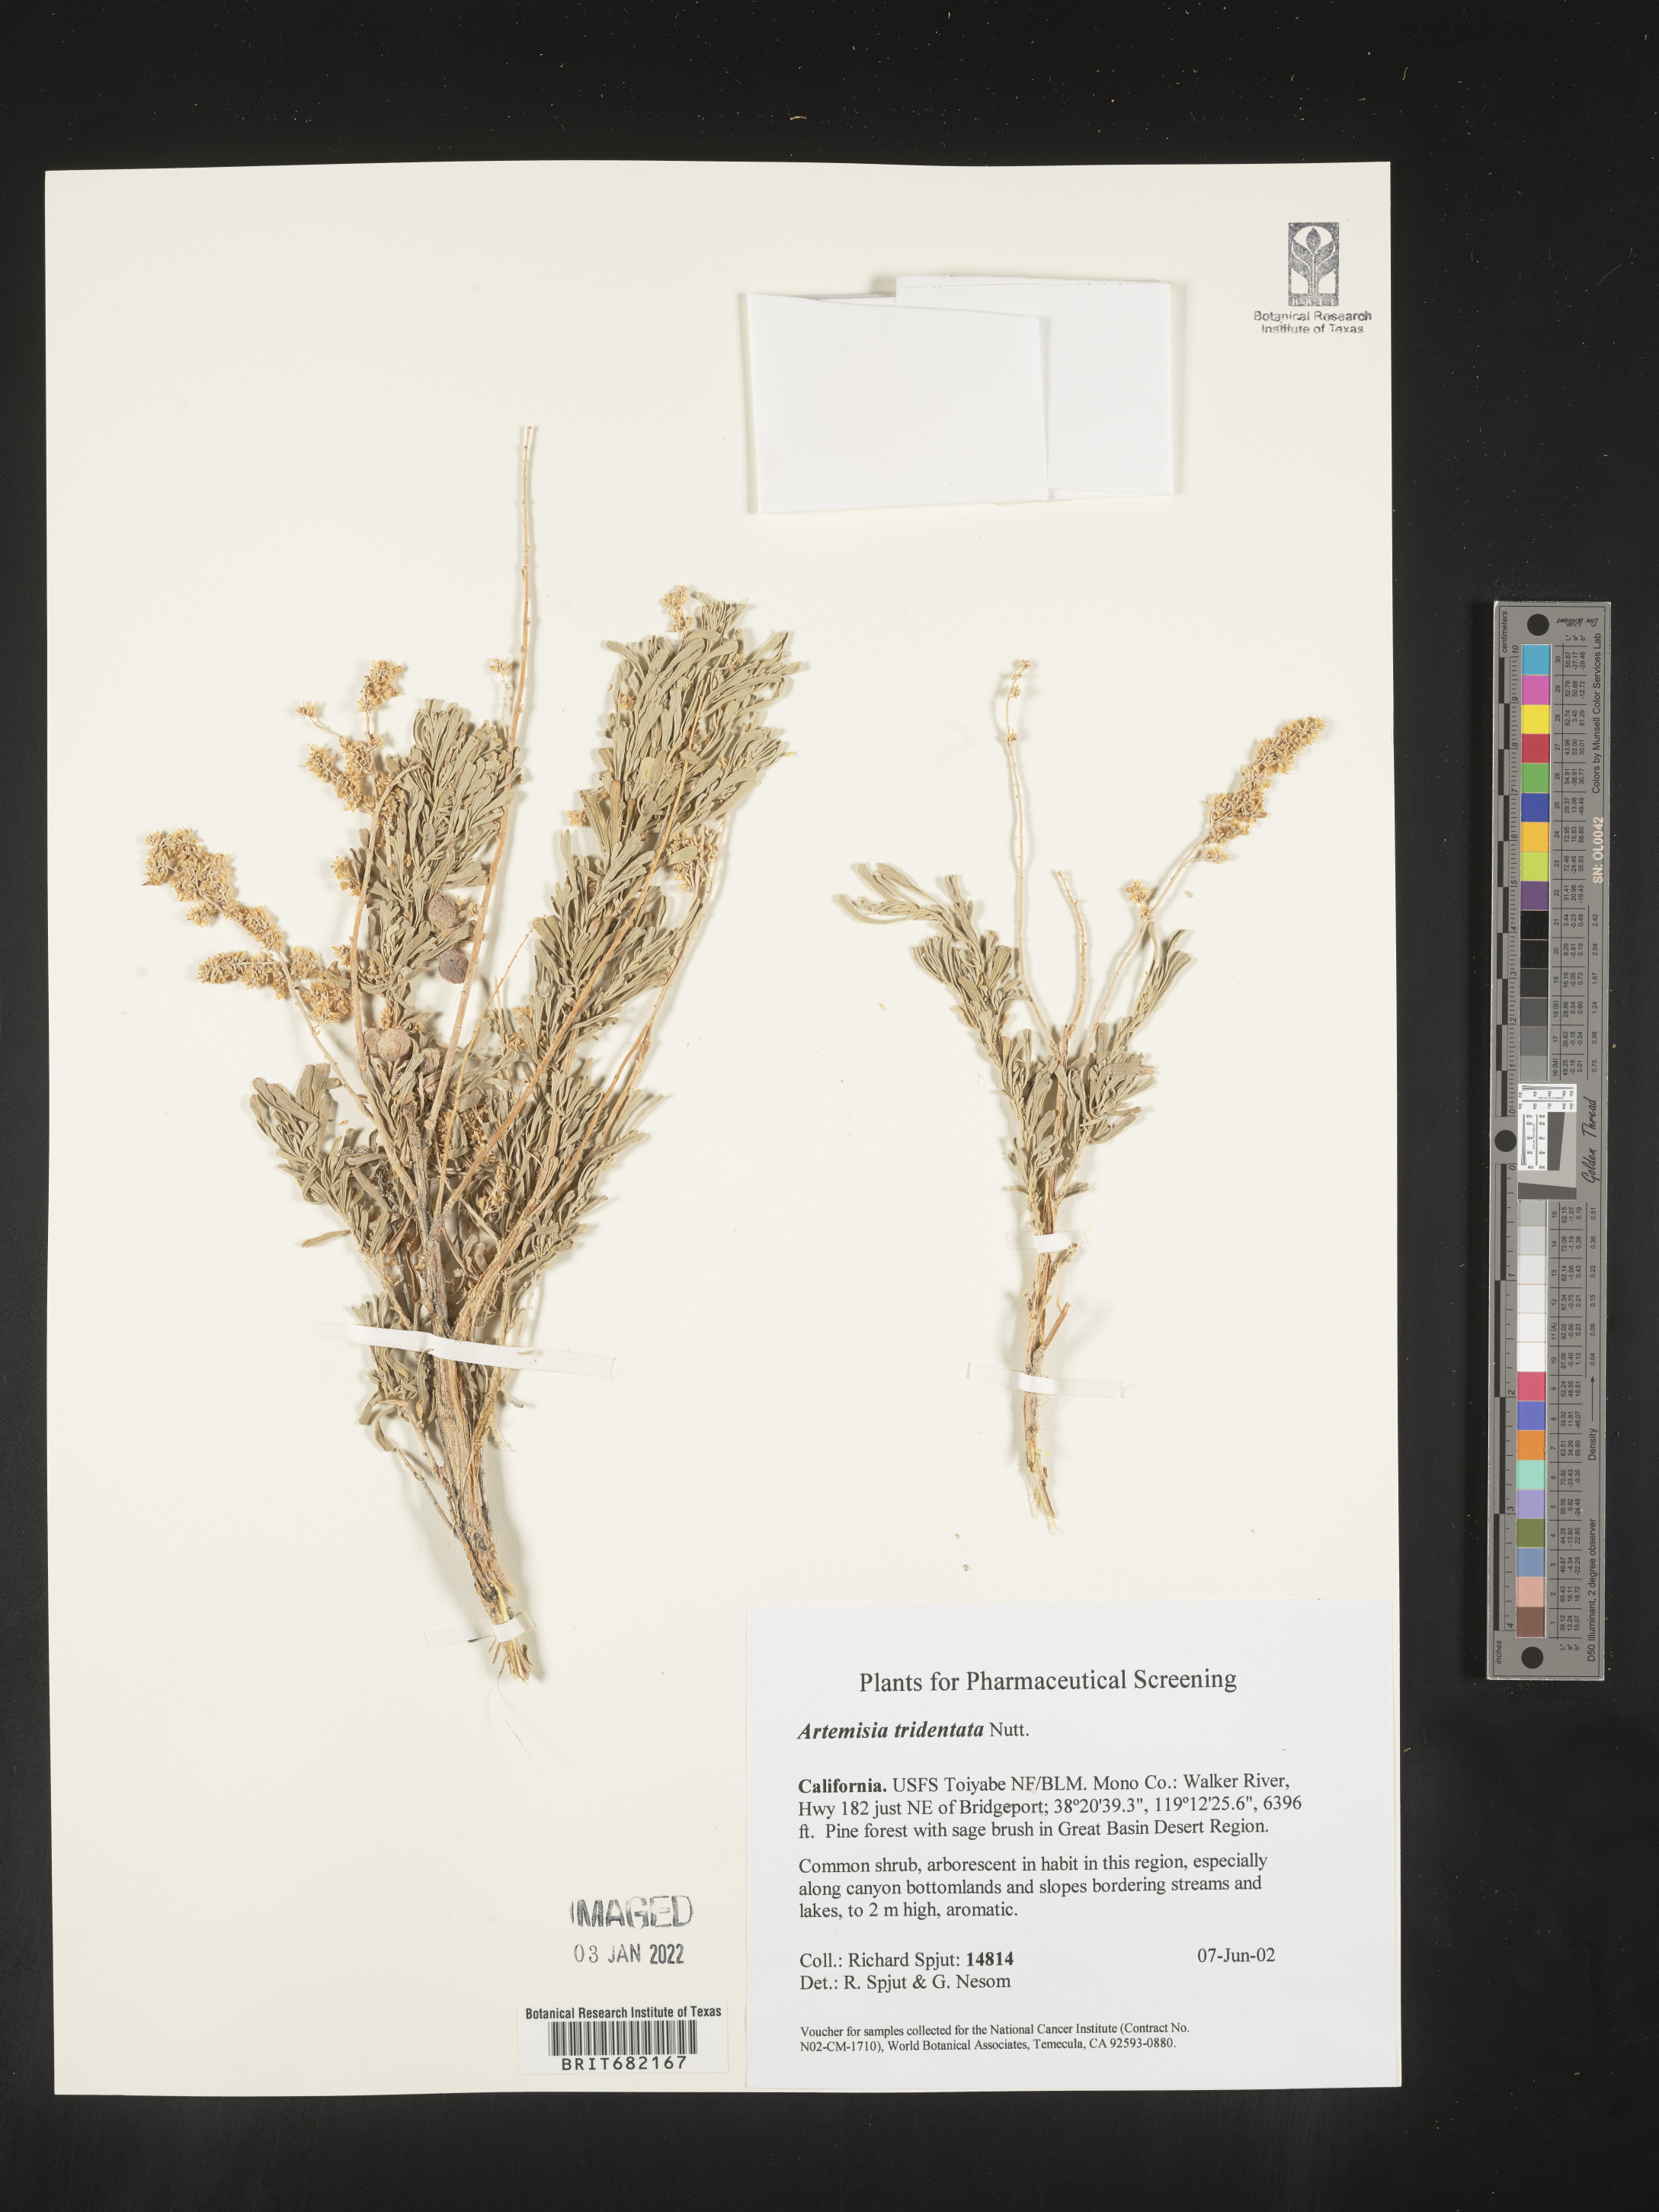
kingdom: Plantae
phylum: Tracheophyta
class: Magnoliopsida
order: Asterales
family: Asteraceae
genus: Artemisia
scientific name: Artemisia tridentata
